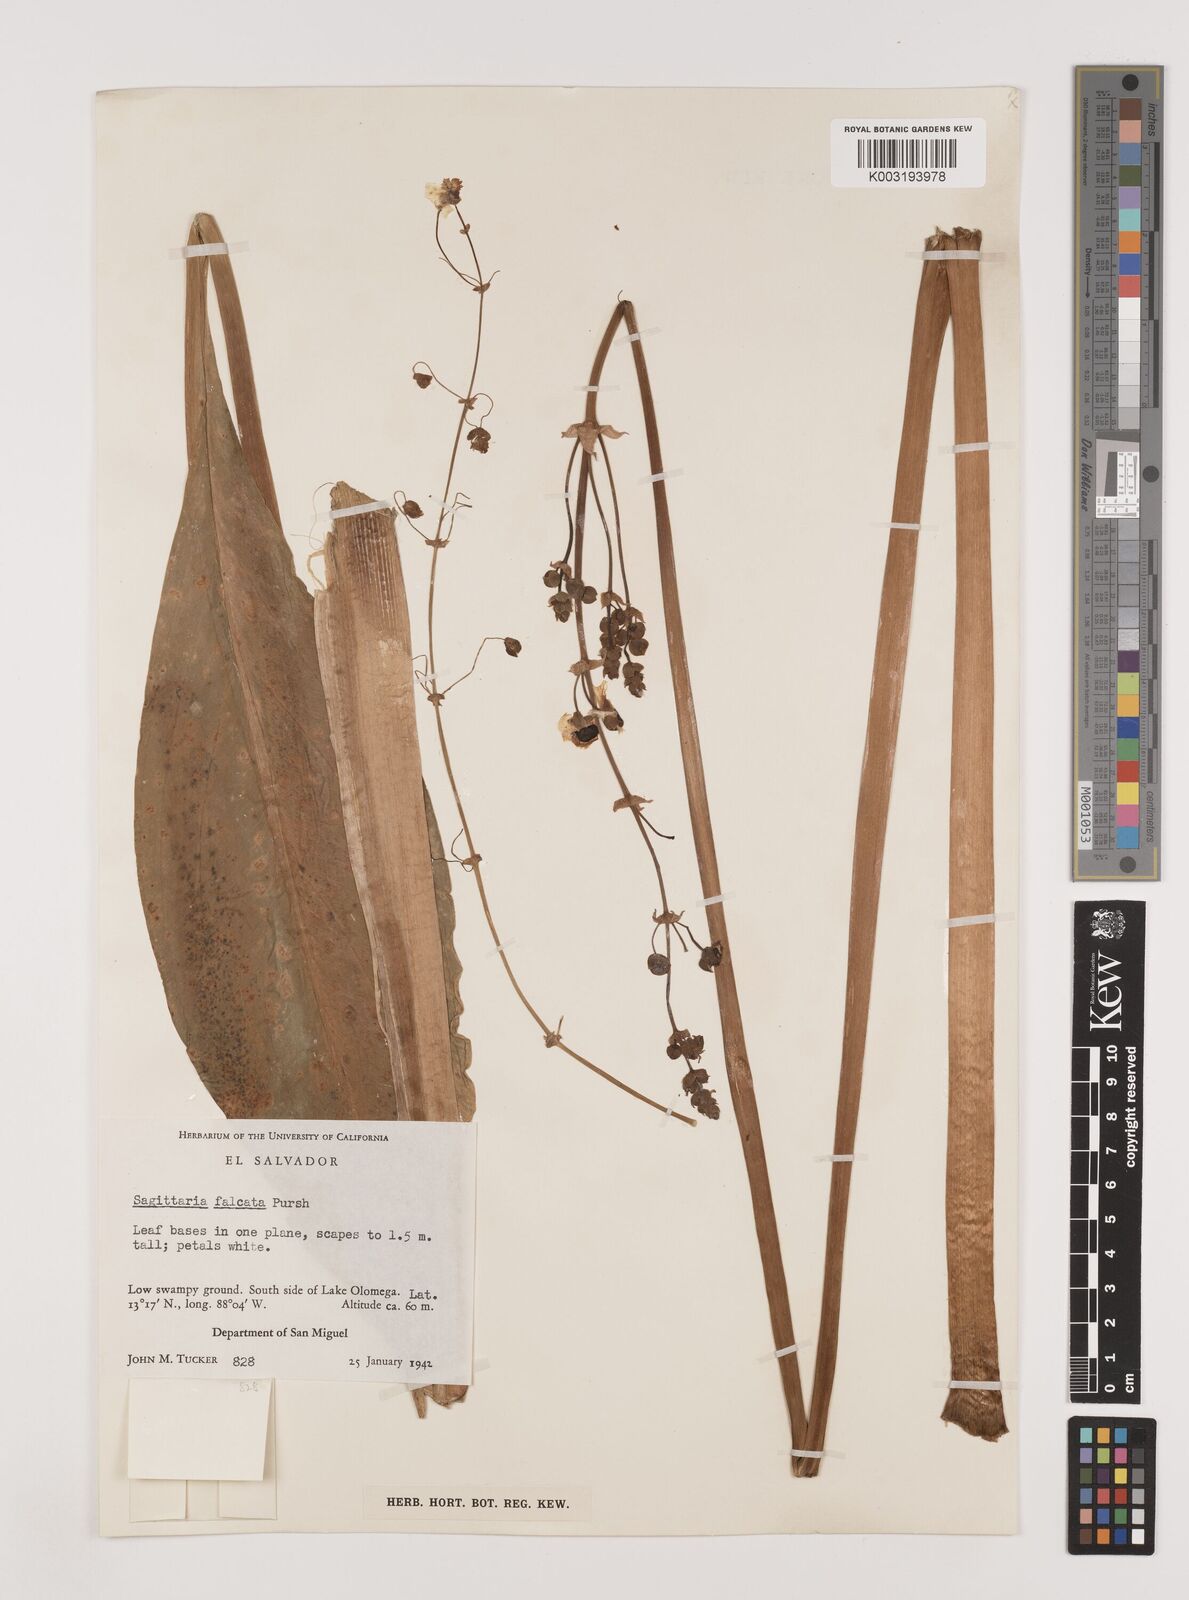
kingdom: Plantae
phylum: Tracheophyta
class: Liliopsida
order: Alismatales
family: Alismataceae
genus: Sagittaria
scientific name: Sagittaria lancifolia
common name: Lance-leaf arrowhead
